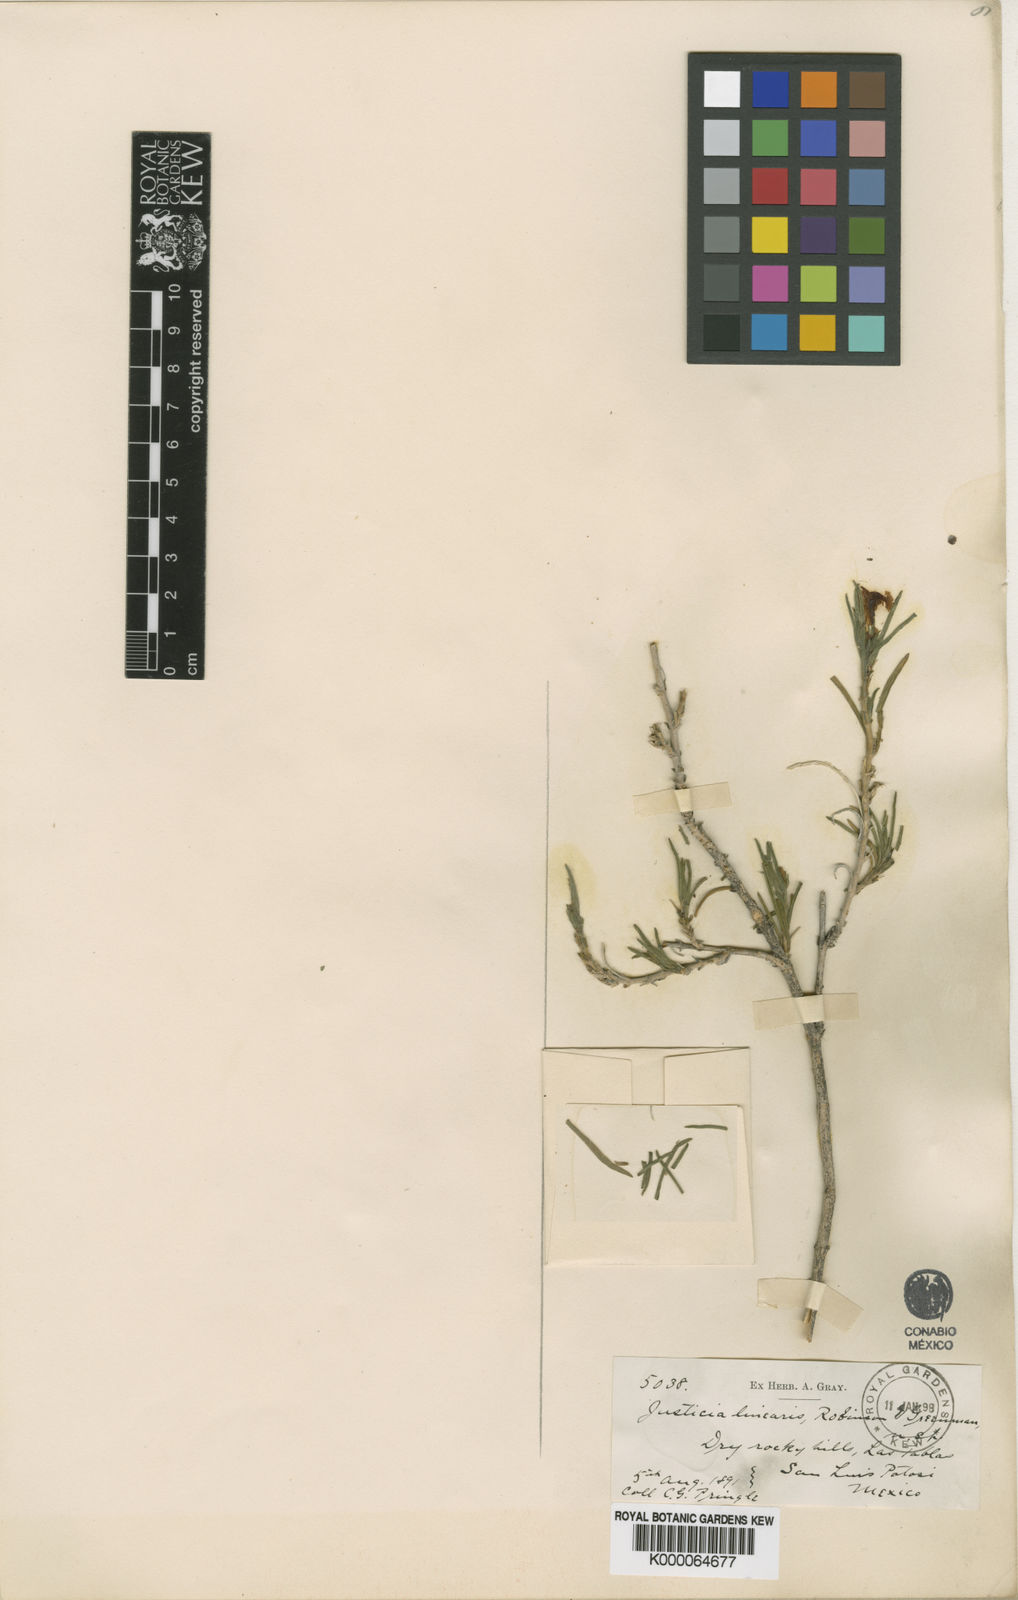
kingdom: Plantae
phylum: Tracheophyta
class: Magnoliopsida
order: Lamiales
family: Acanthaceae
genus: Justicia
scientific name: Justicia linearis
